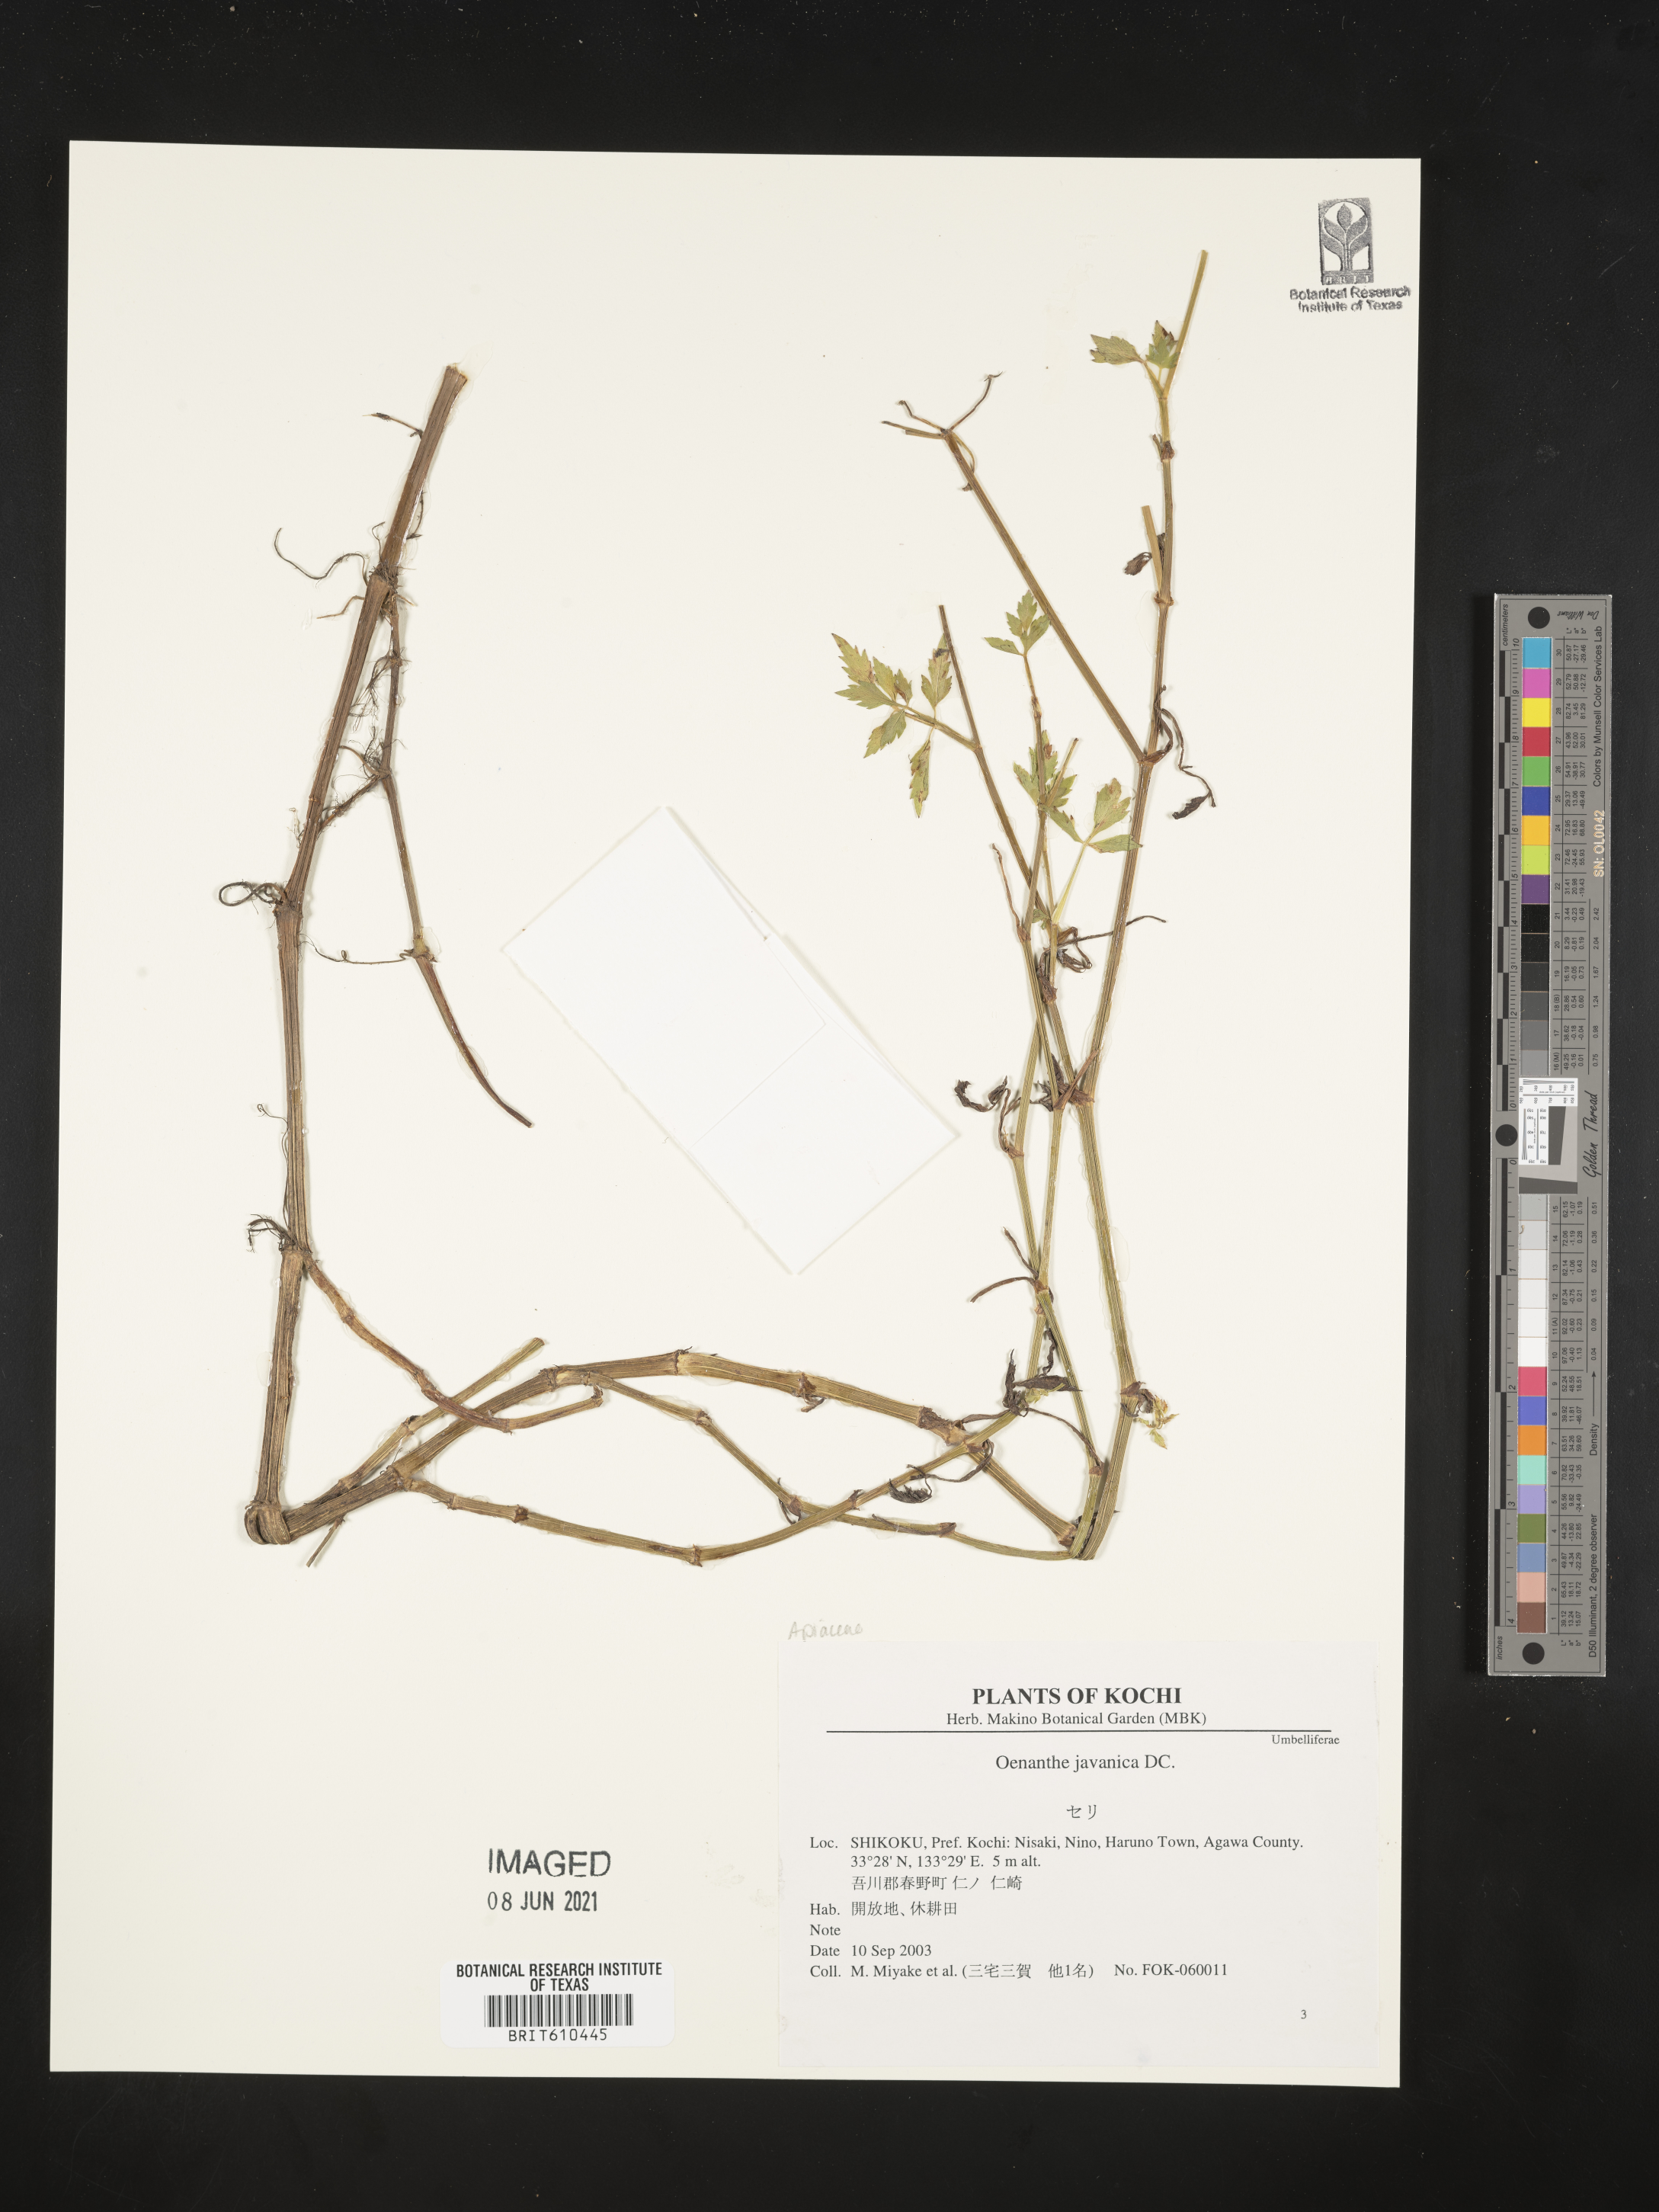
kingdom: Plantae
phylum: Tracheophyta
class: Magnoliopsida
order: Apiales
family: Apiaceae
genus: Oenanthe
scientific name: Oenanthe javanica
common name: Java water-dropwort
